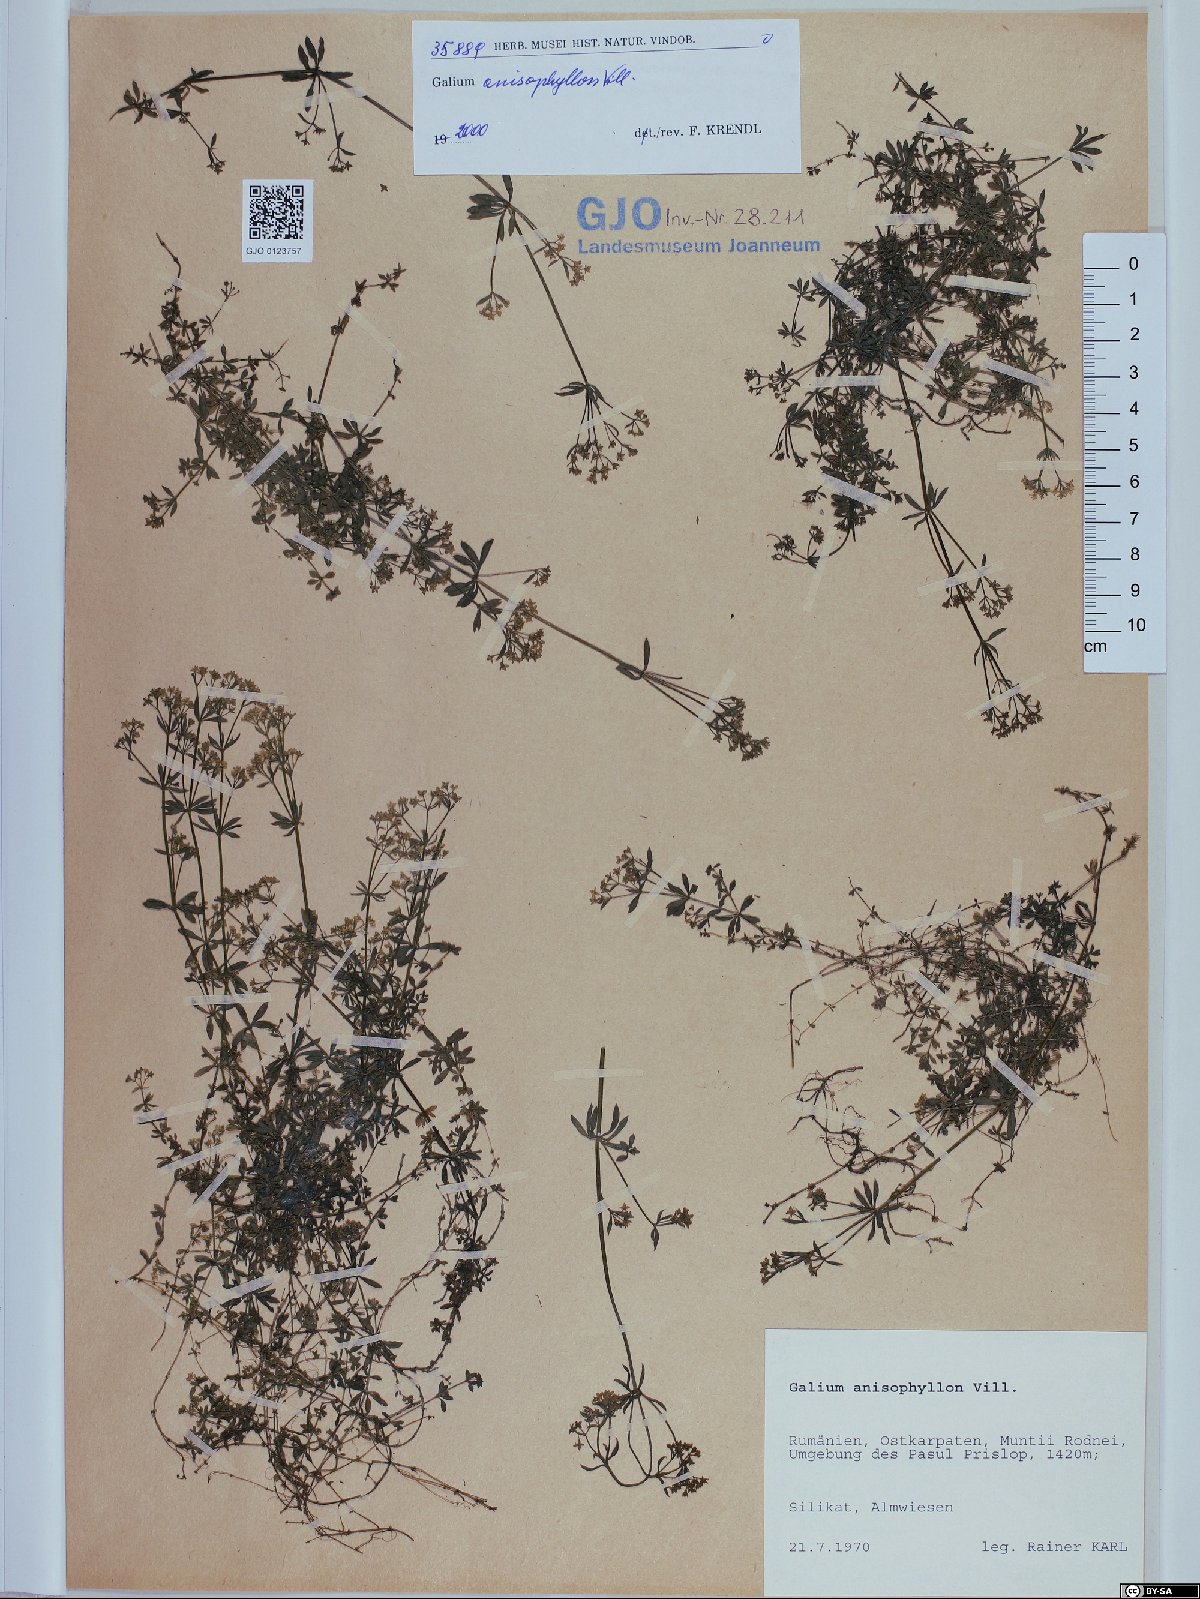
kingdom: Plantae
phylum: Tracheophyta
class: Magnoliopsida
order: Gentianales
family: Rubiaceae
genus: Galium
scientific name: Galium anisophyllon
